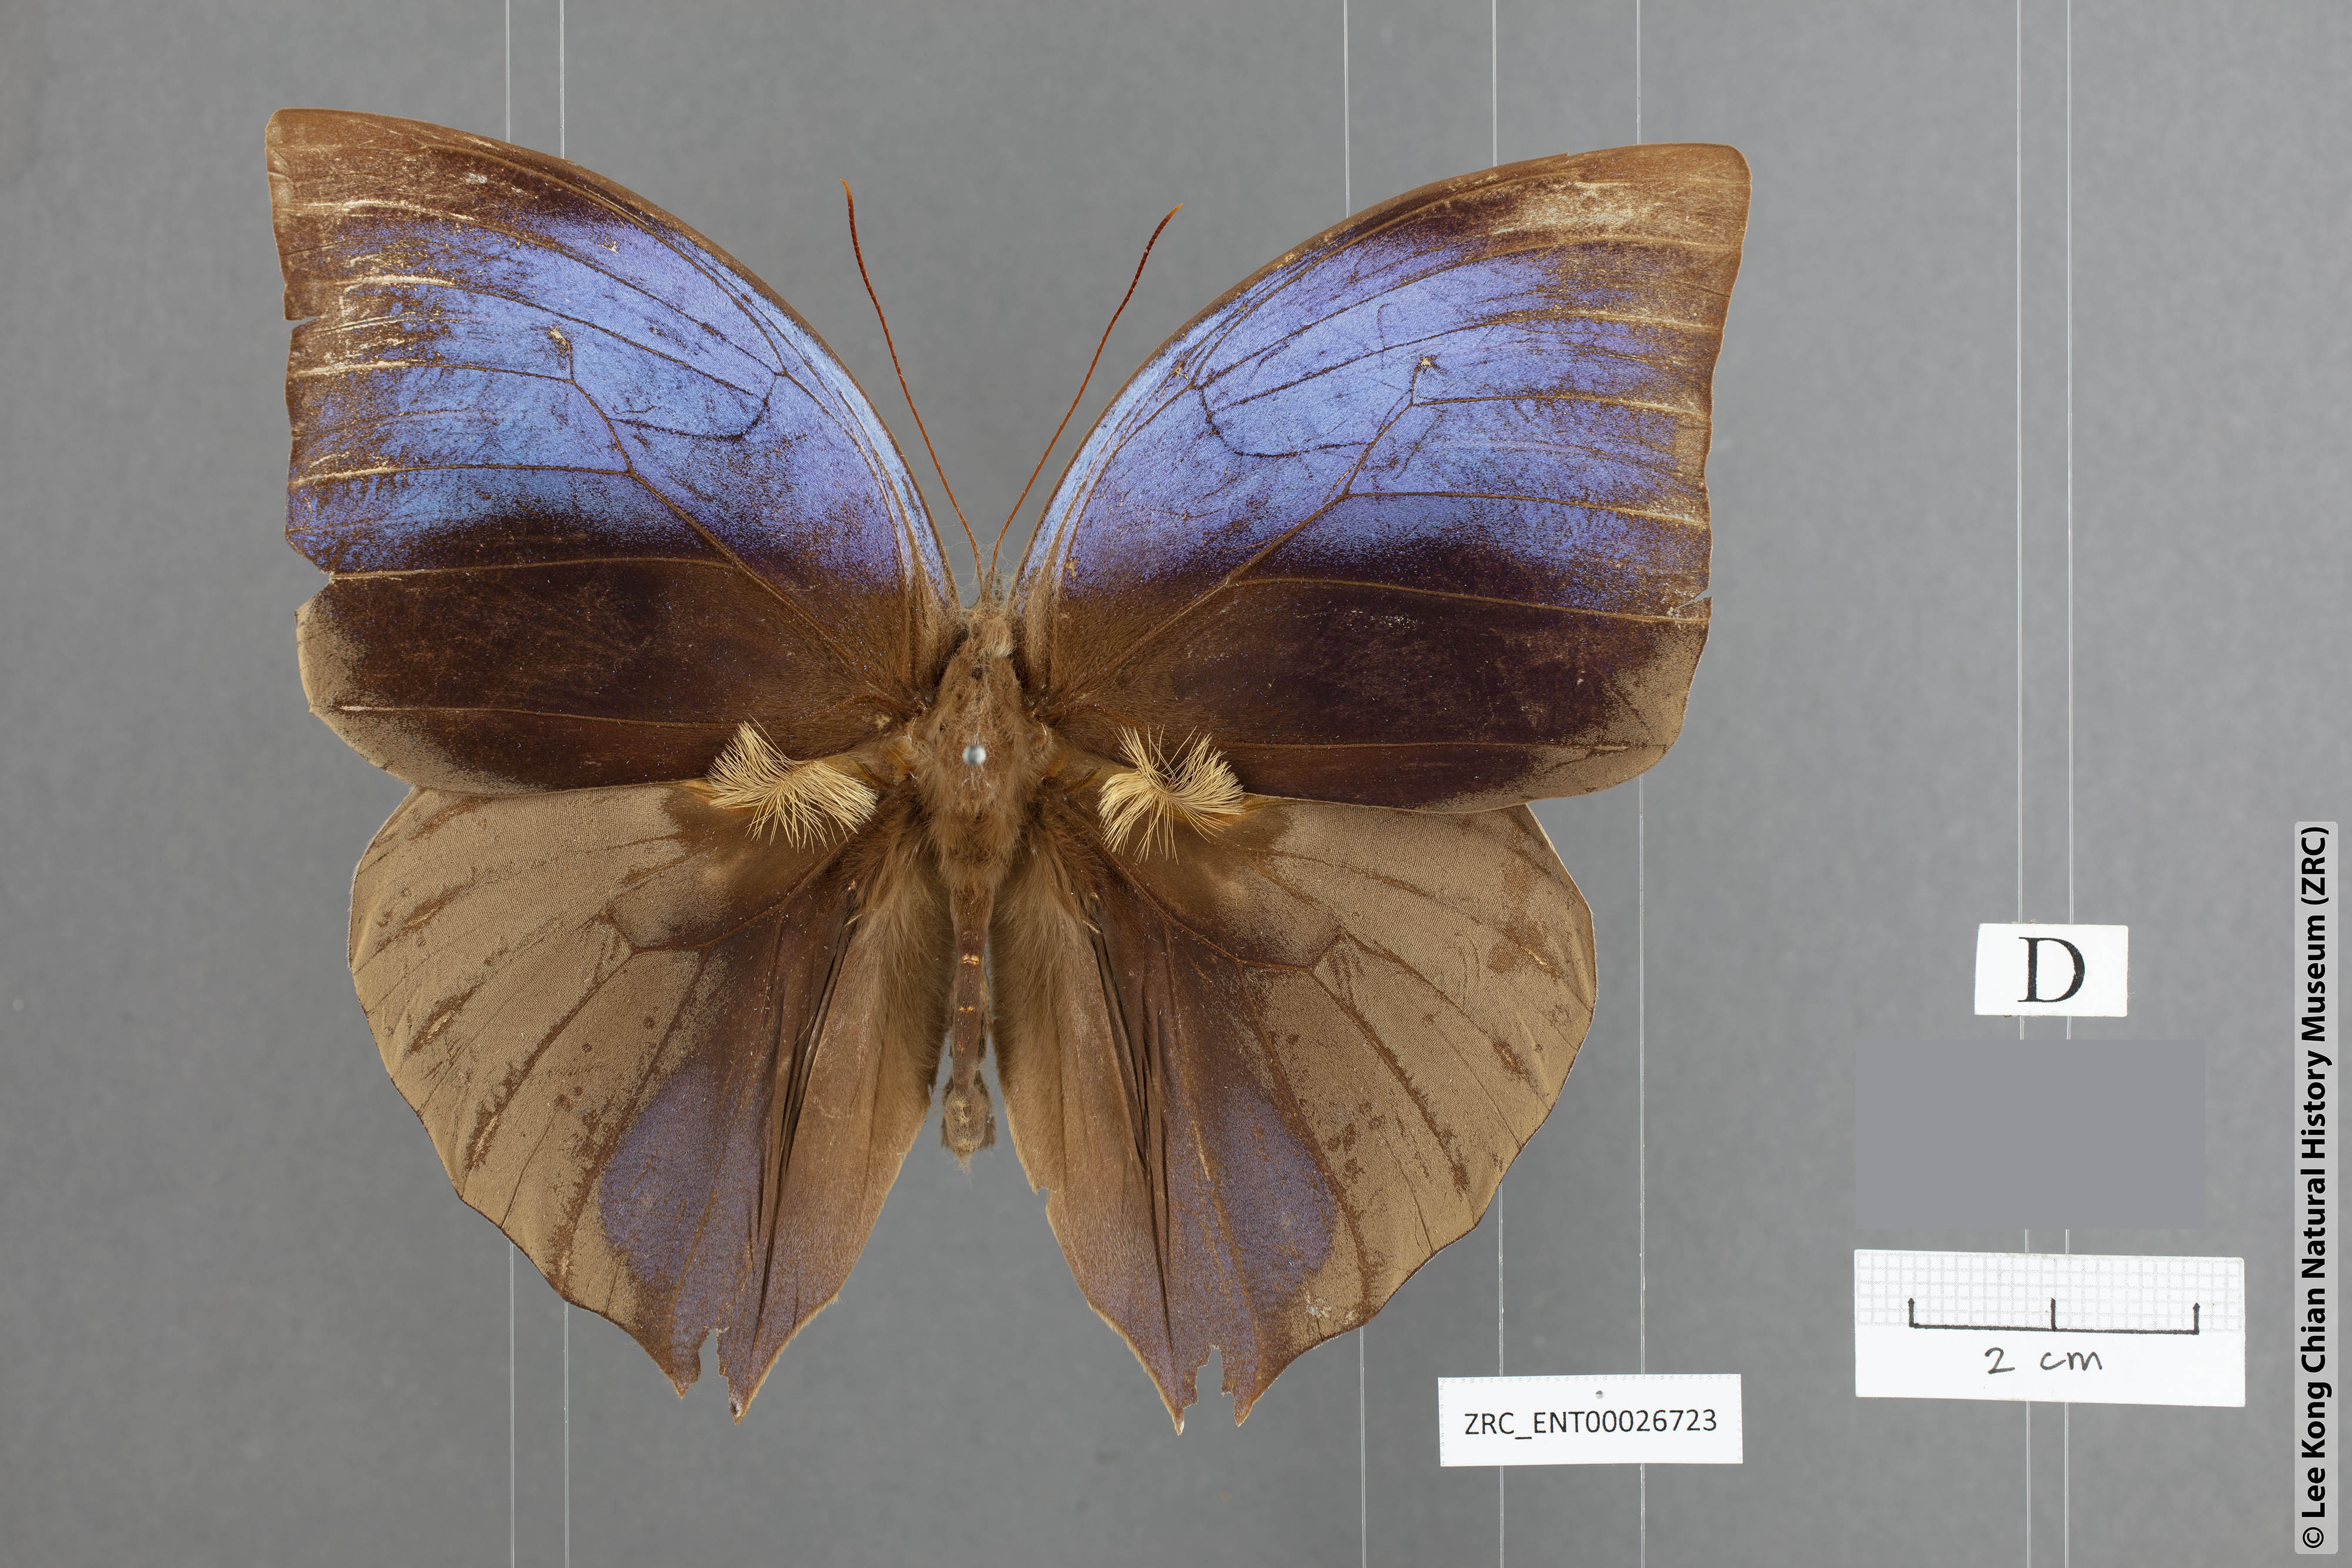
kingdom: Animalia
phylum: Arthropoda
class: Insecta
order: Lepidoptera
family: Nymphalidae
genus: Zeuxidia
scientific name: Zeuxidia aurelia
